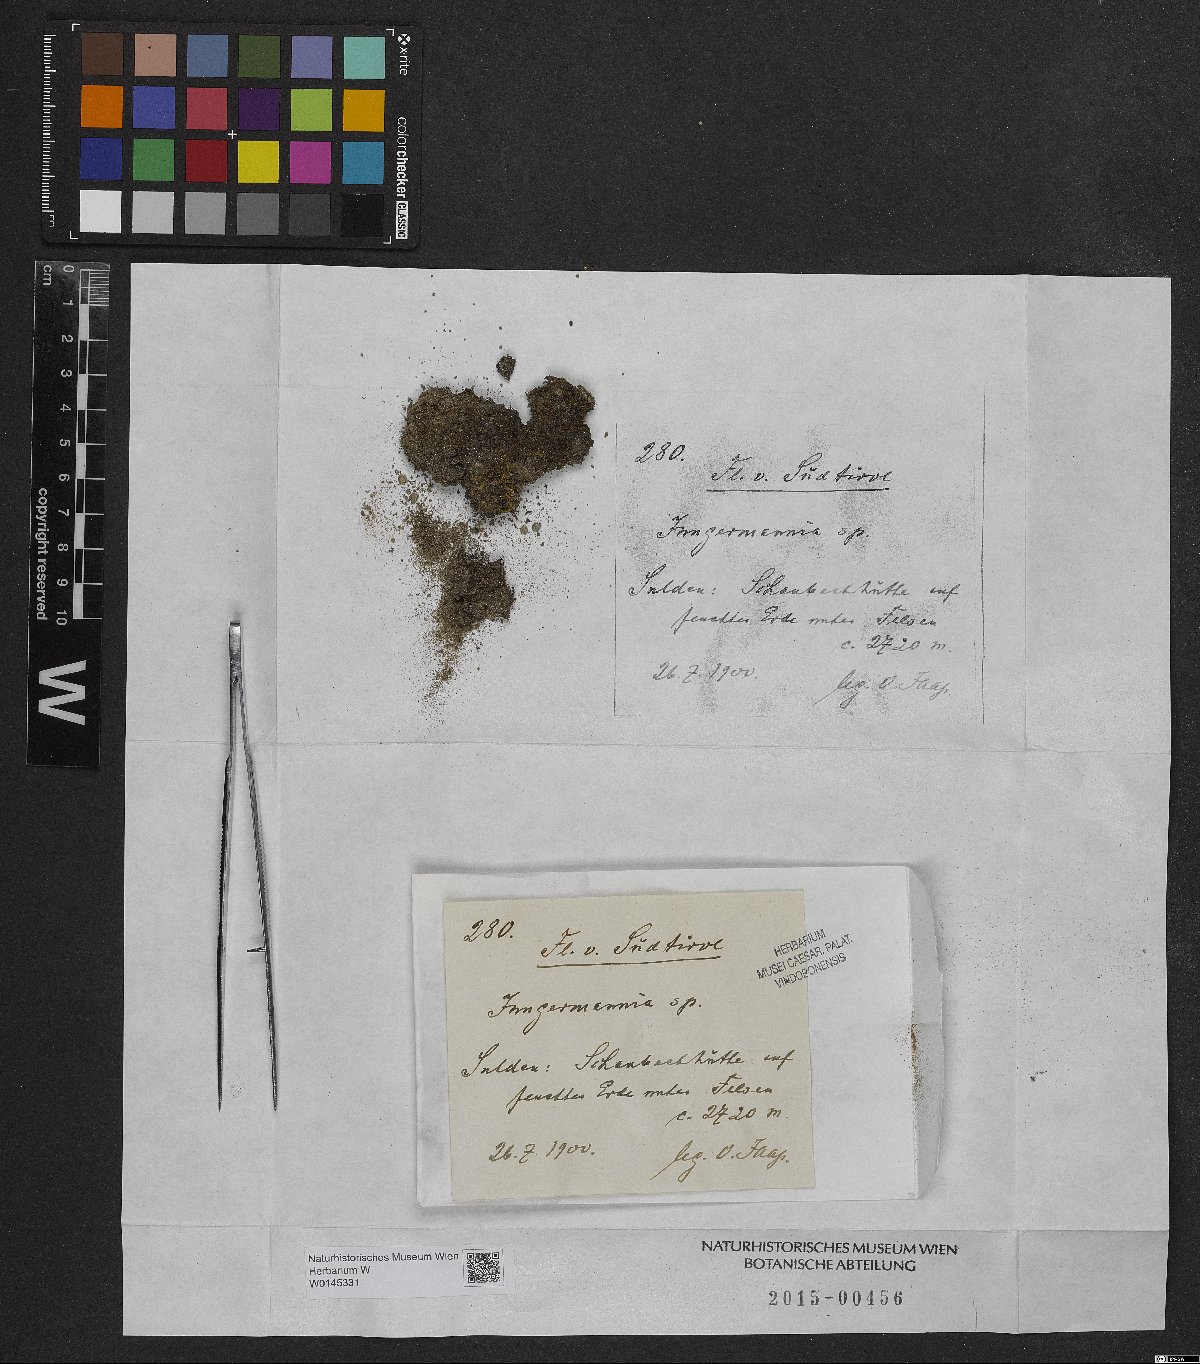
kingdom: Plantae
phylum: Marchantiophyta
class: Jungermanniopsida
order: Jungermanniales
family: Jungermanniaceae
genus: Jungermannia
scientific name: Jungermannia
